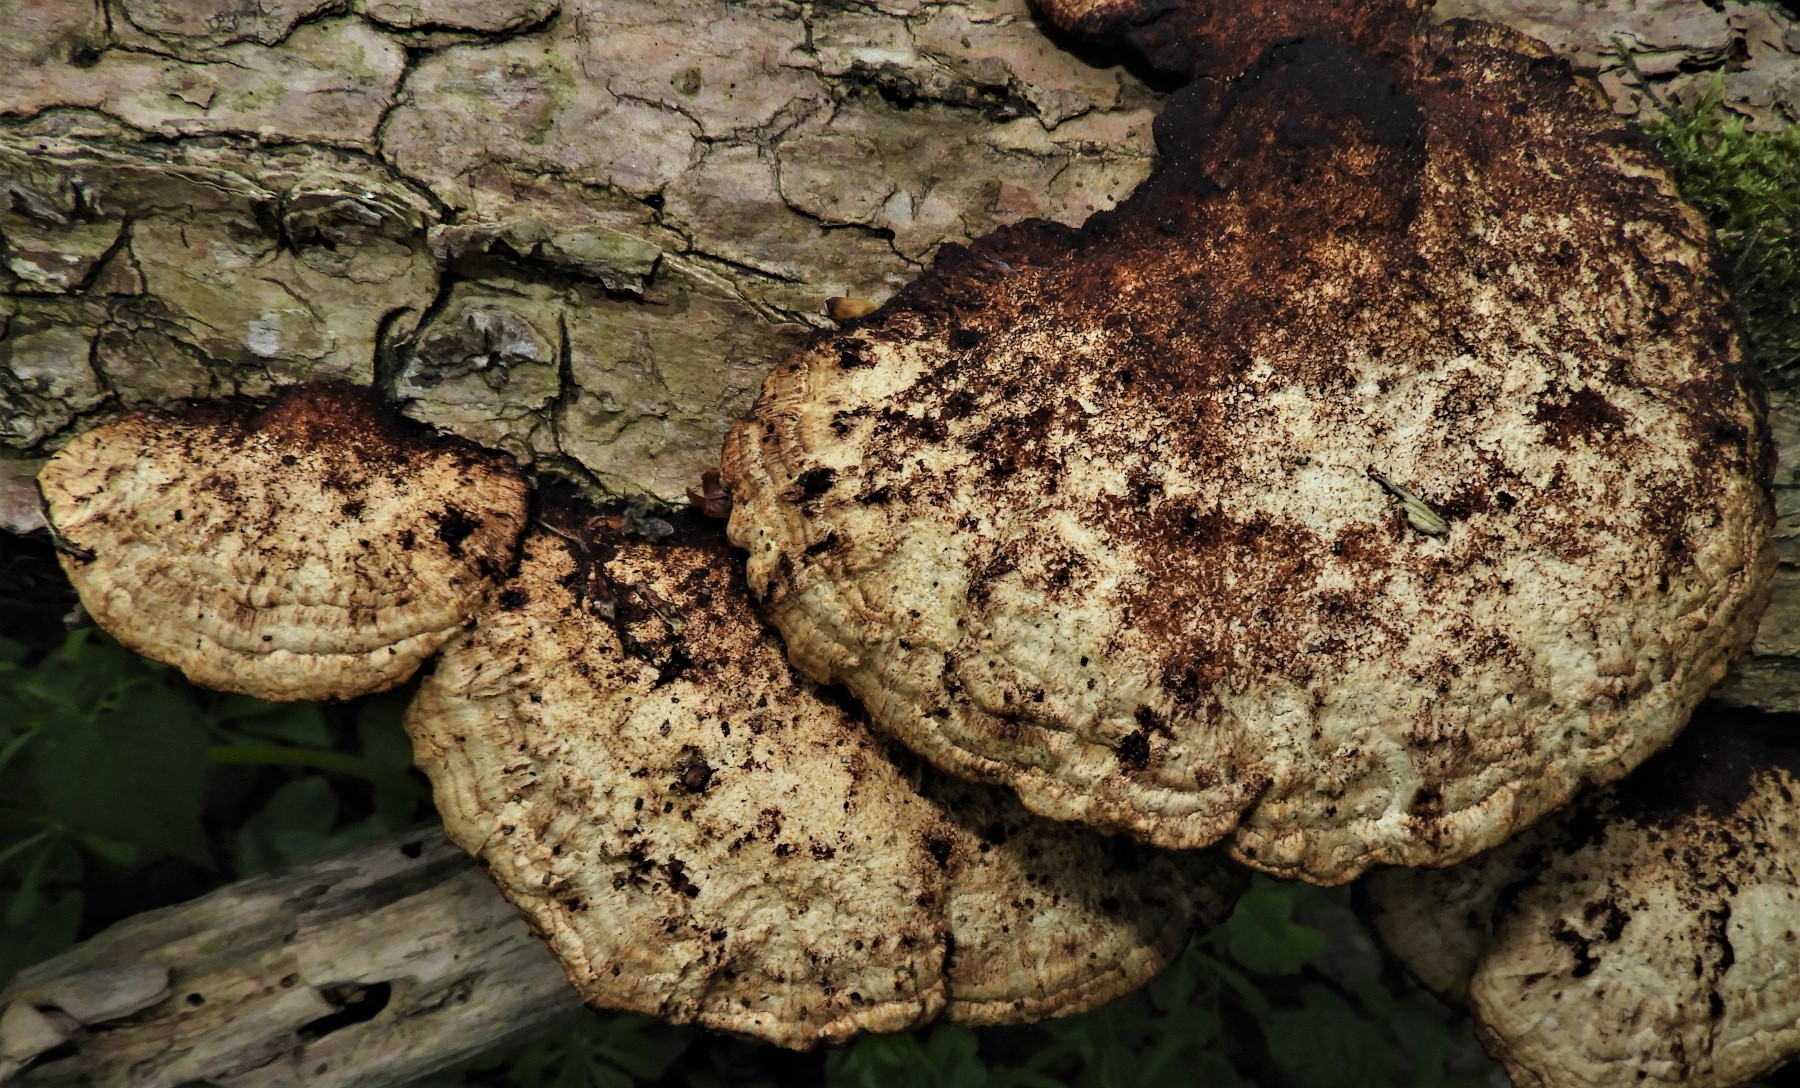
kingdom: Fungi
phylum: Basidiomycota
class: Agaricomycetes
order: Polyporales
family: Polyporaceae
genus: Daedaleopsis
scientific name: Daedaleopsis confragosa
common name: rødmende læderporesvamp
